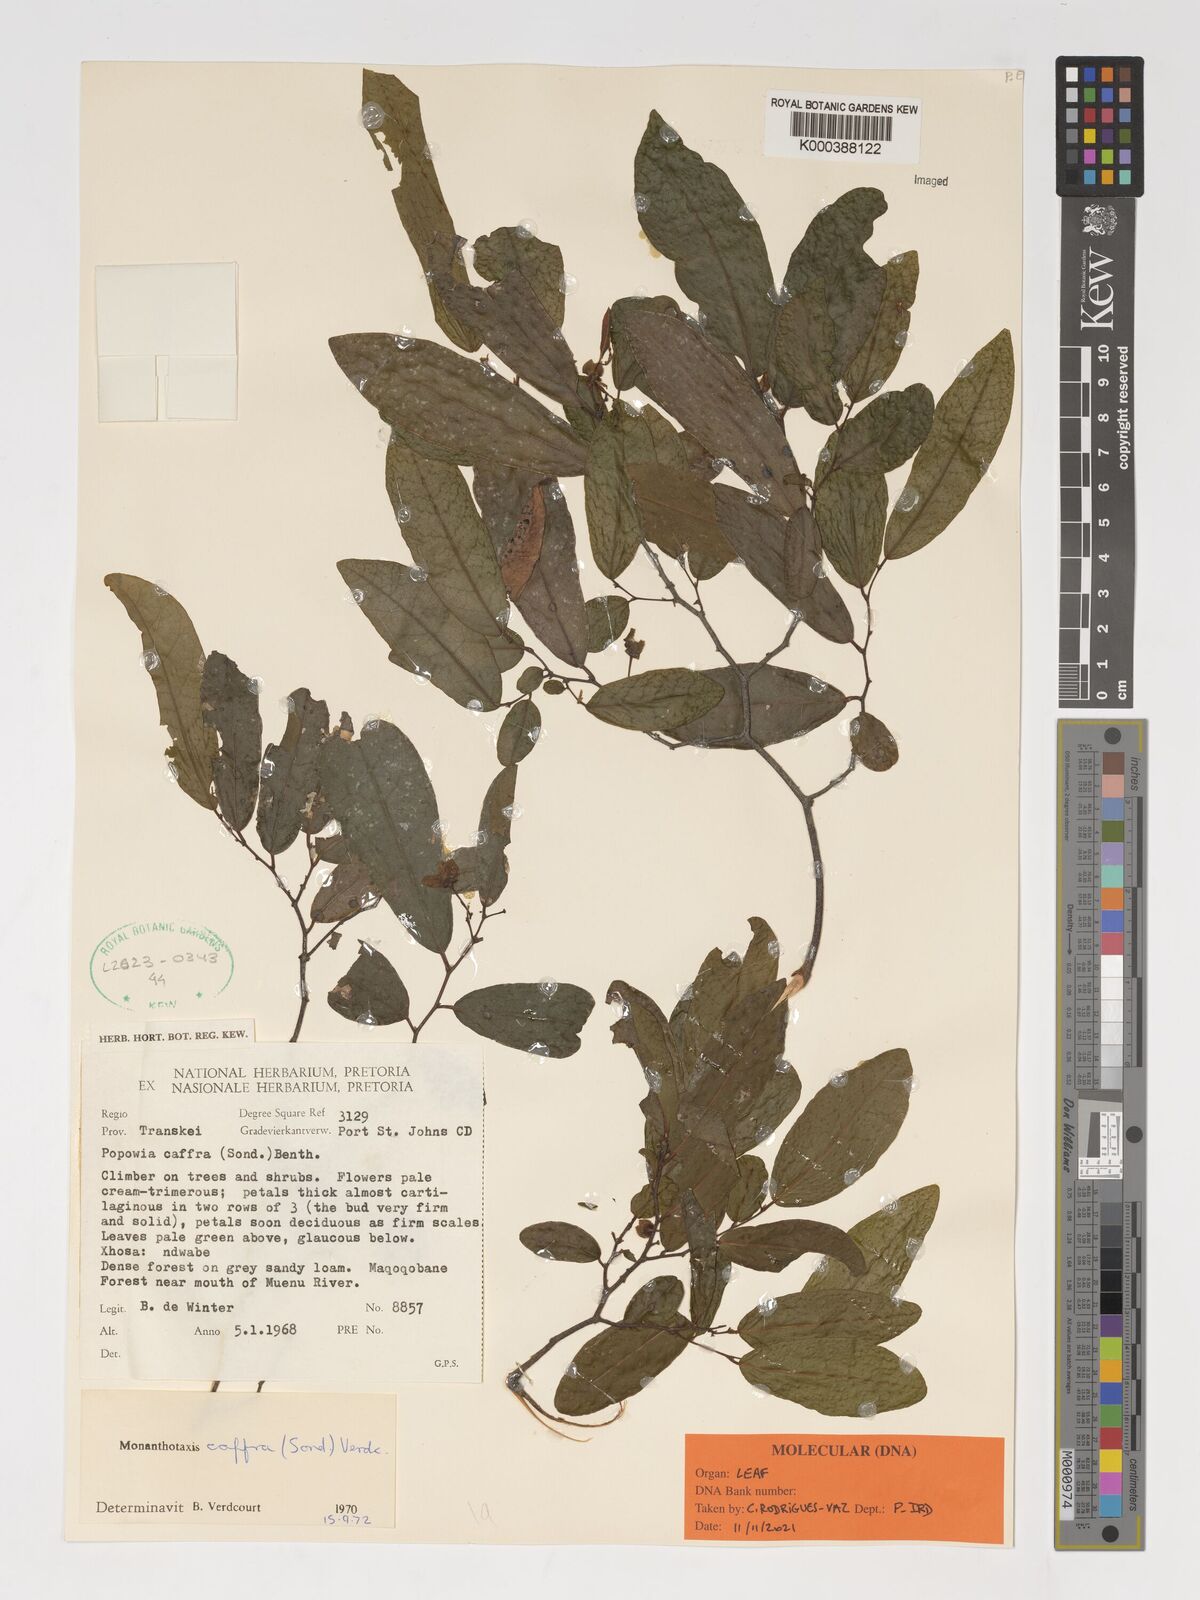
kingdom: Plantae
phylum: Tracheophyta
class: Magnoliopsida
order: Magnoliales
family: Annonaceae
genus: Monanthotaxis
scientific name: Monanthotaxis caffra
